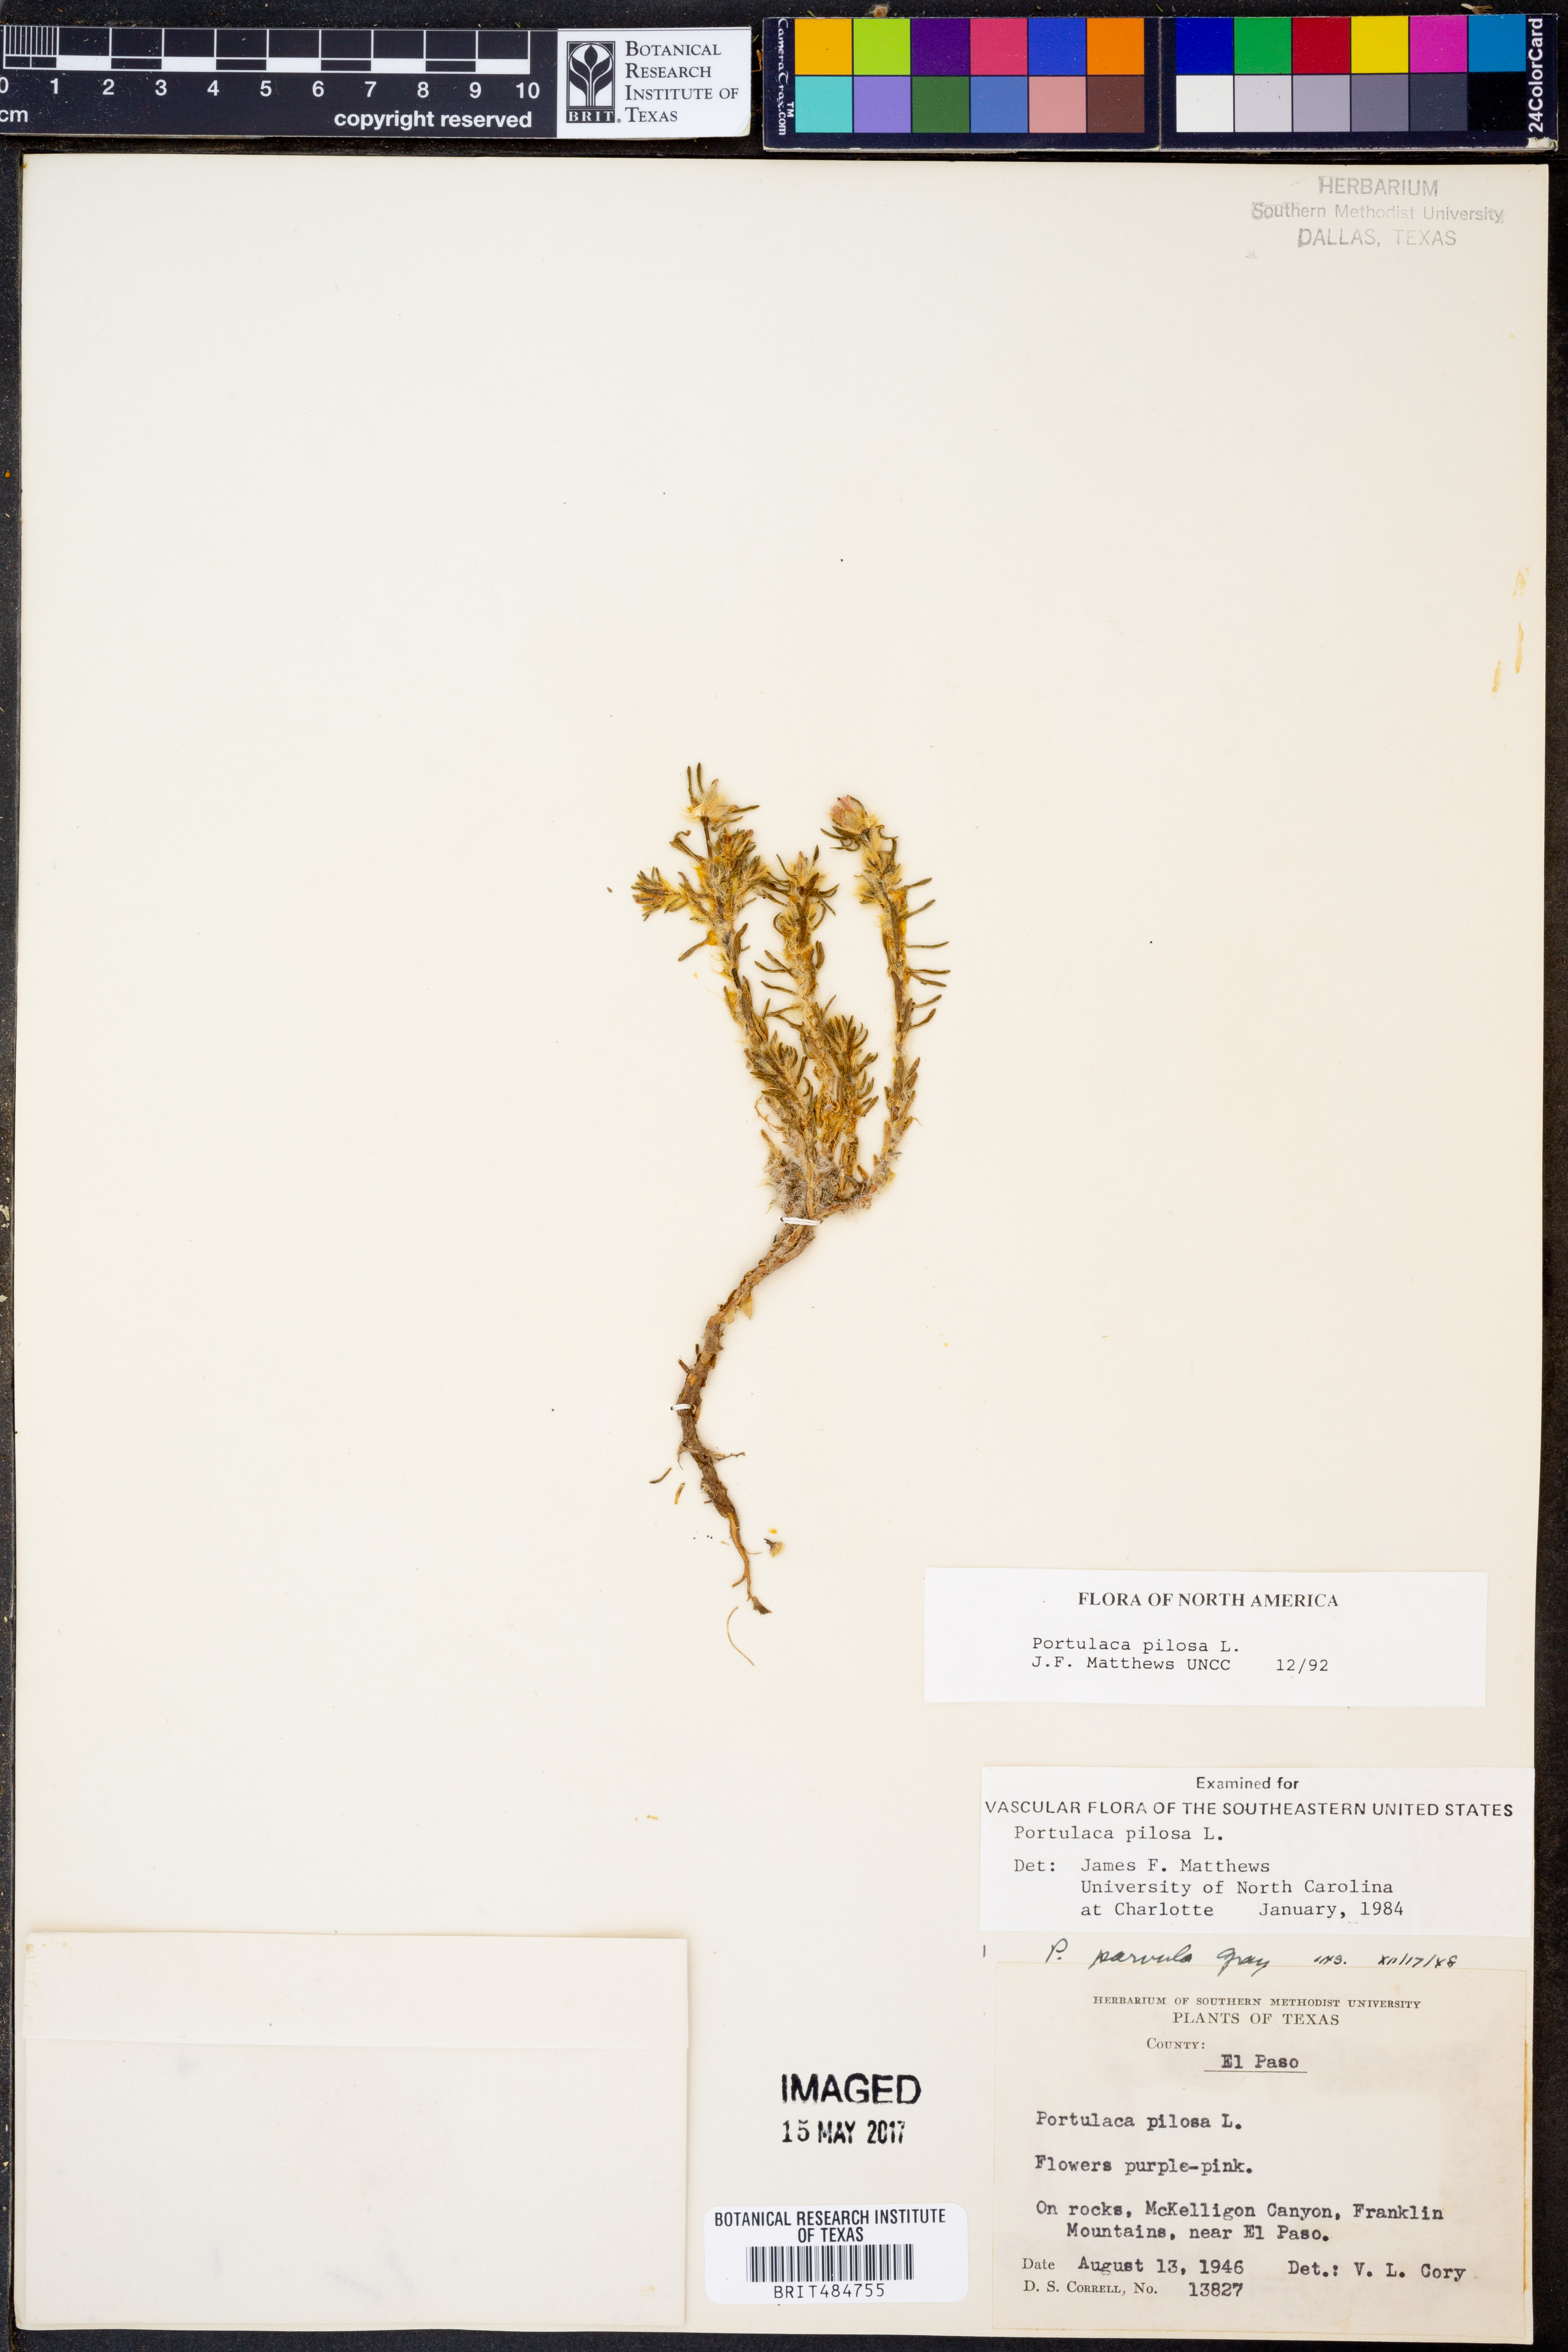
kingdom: Plantae
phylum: Tracheophyta
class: Magnoliopsida
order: Caryophyllales
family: Portulacaceae
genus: Portulaca
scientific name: Portulaca pilosa
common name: Kiss me quick
